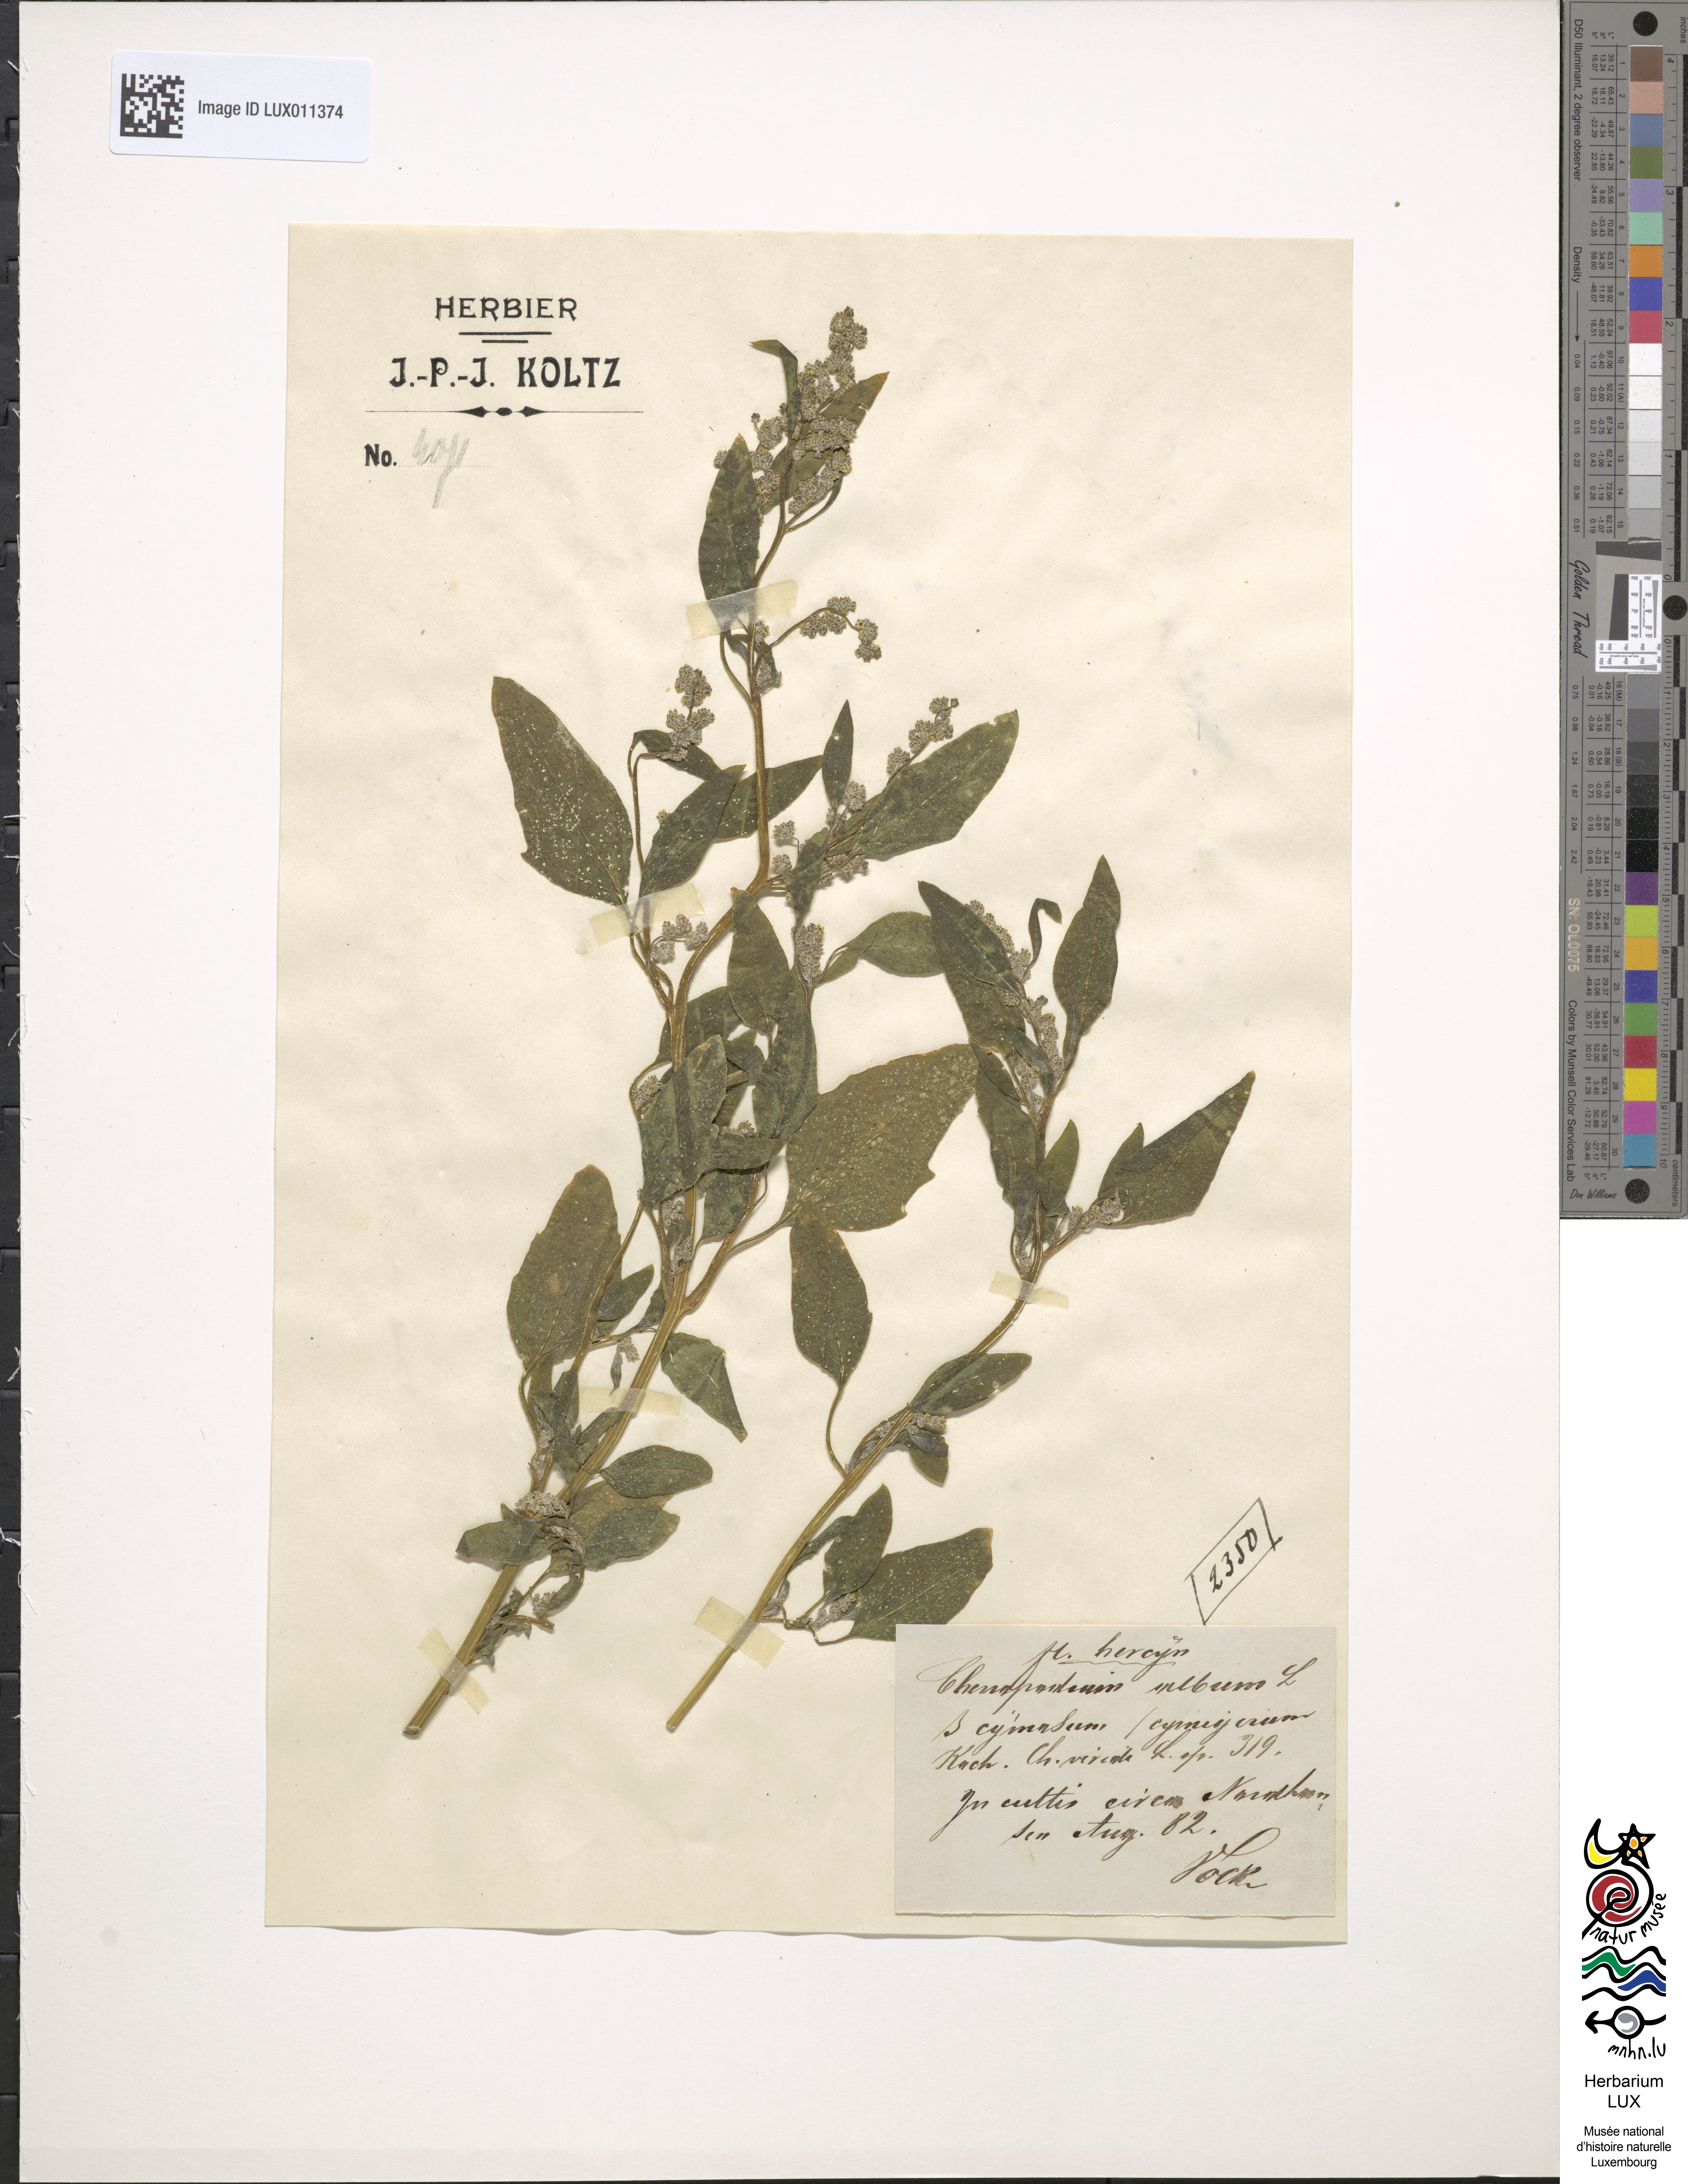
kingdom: Plantae
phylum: Tracheophyta
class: Magnoliopsida
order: Caryophyllales
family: Amaranthaceae
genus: Chenopodium
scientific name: Chenopodium suecicum
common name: Swedish goosefoot
